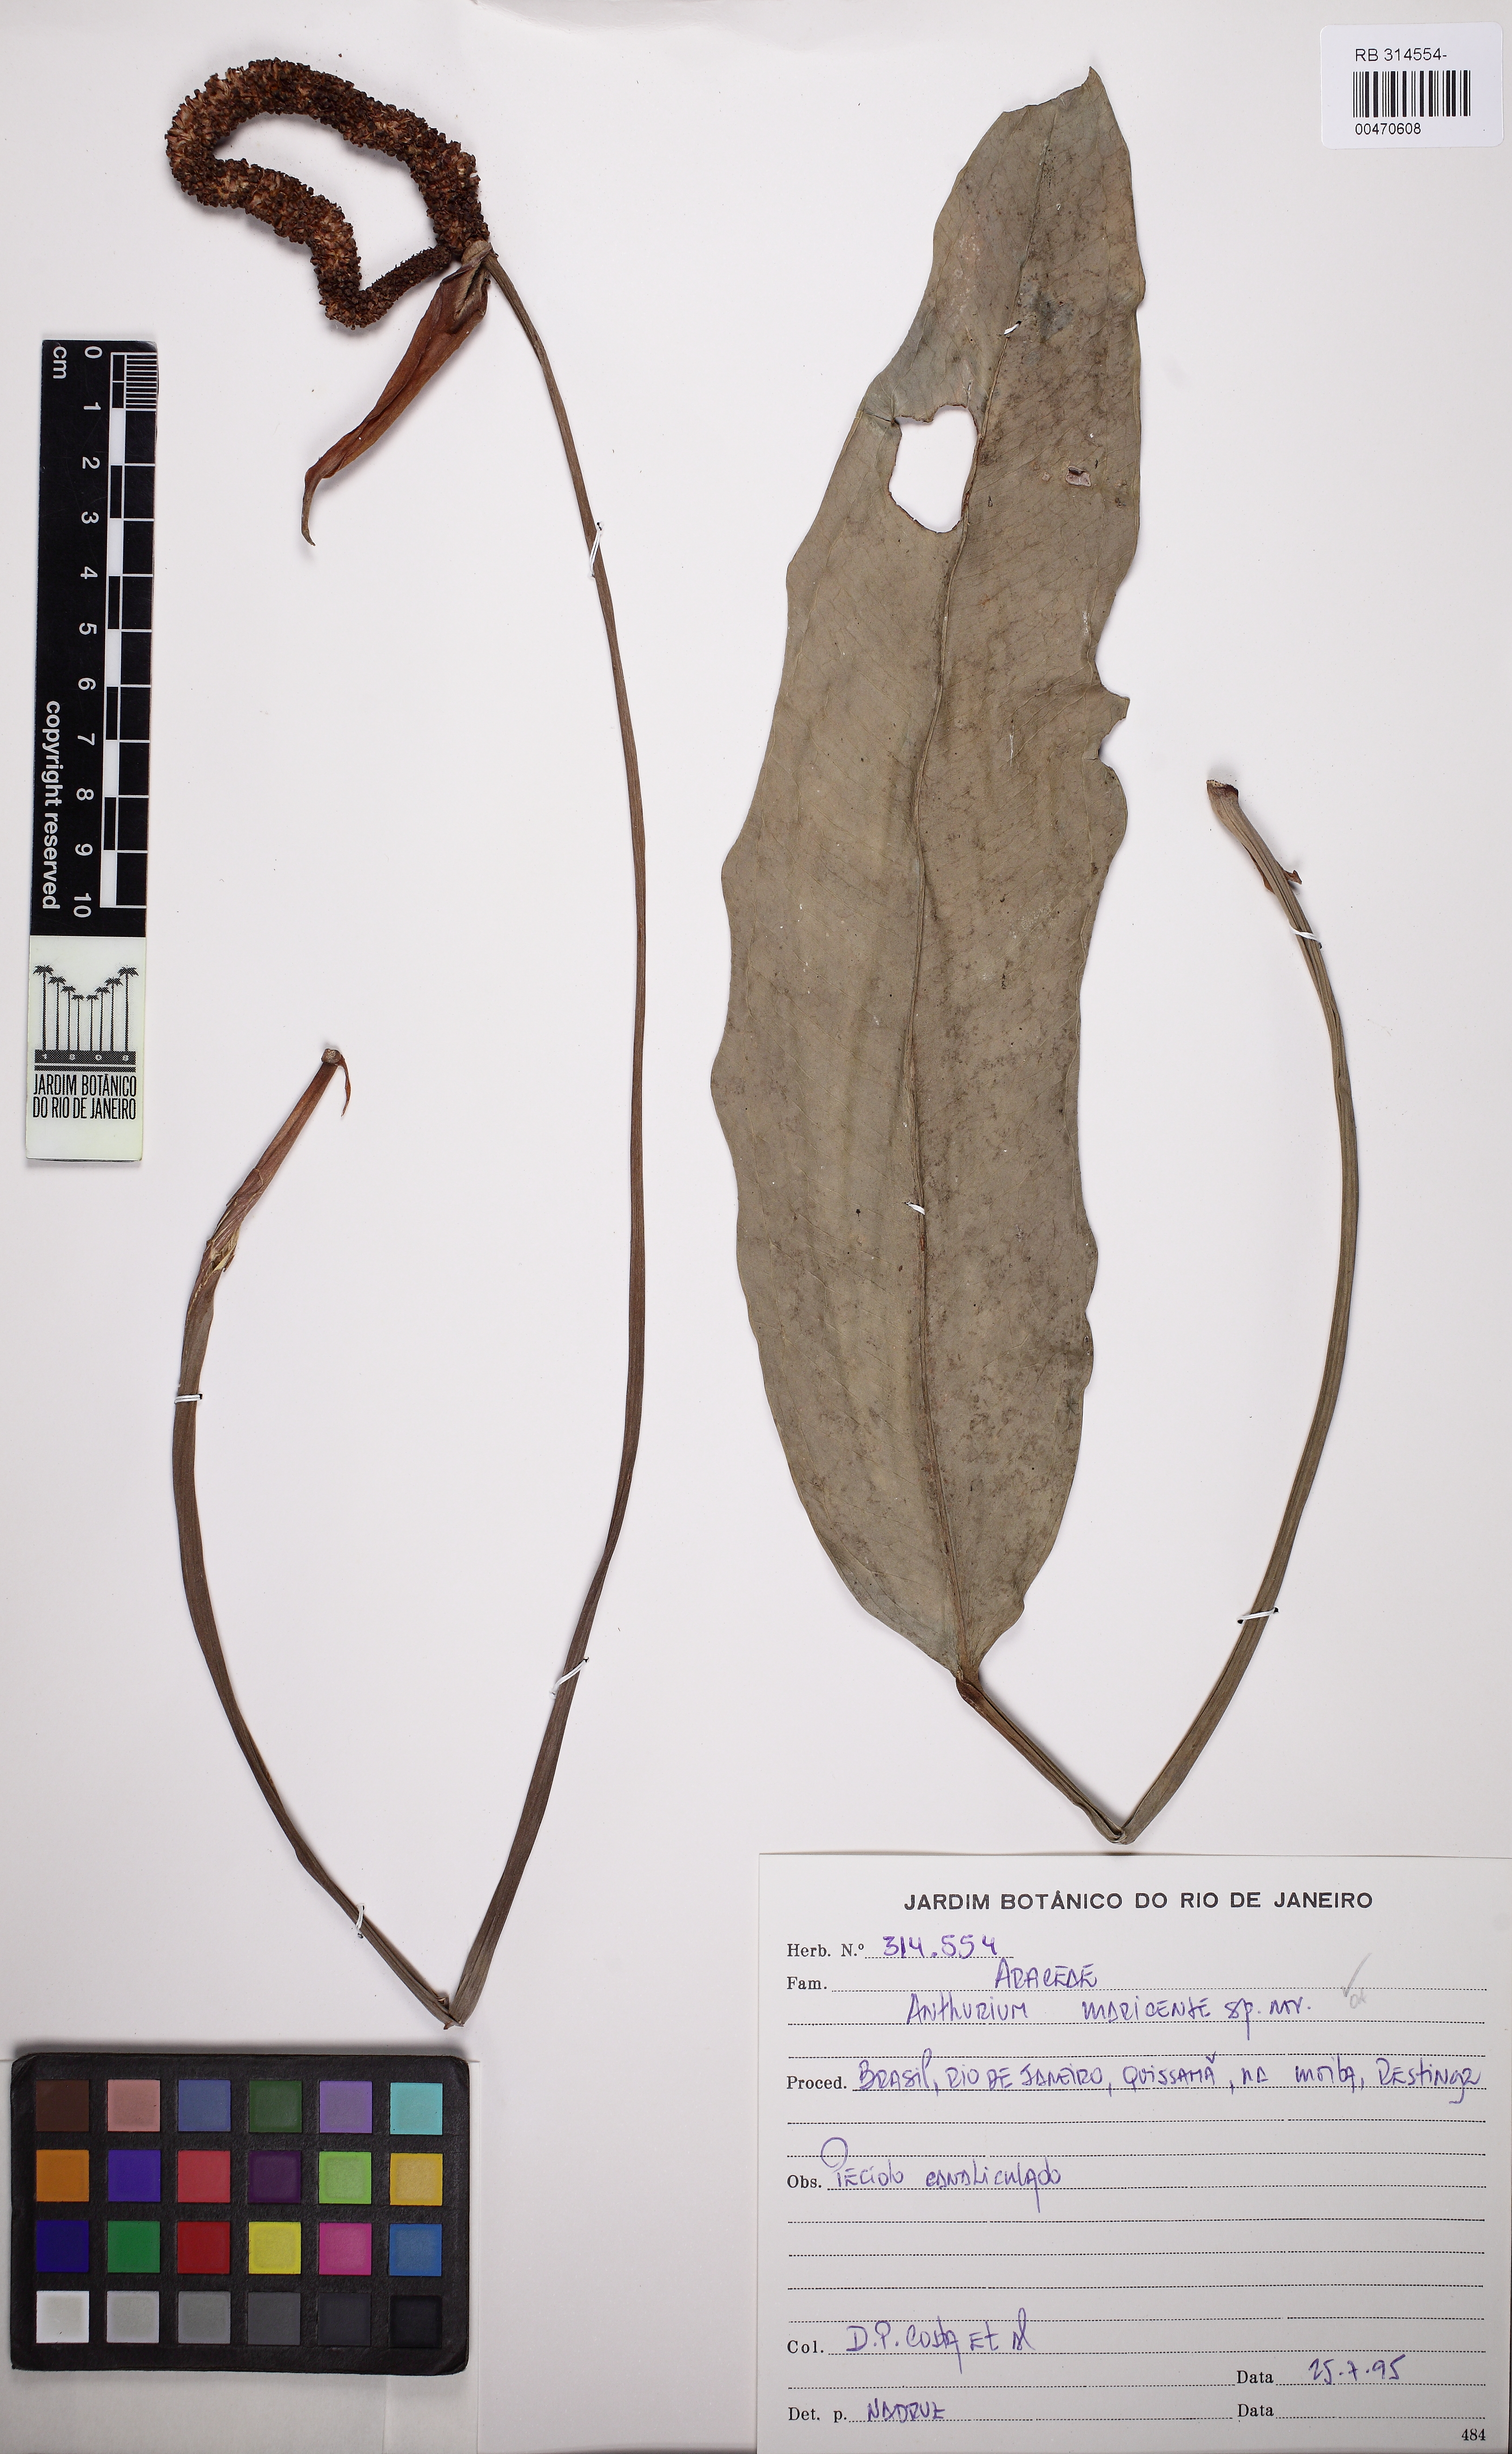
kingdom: Plantae
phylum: Tracheophyta
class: Liliopsida
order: Alismatales
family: Araceae
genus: Anthurium
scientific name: Anthurium maricense
